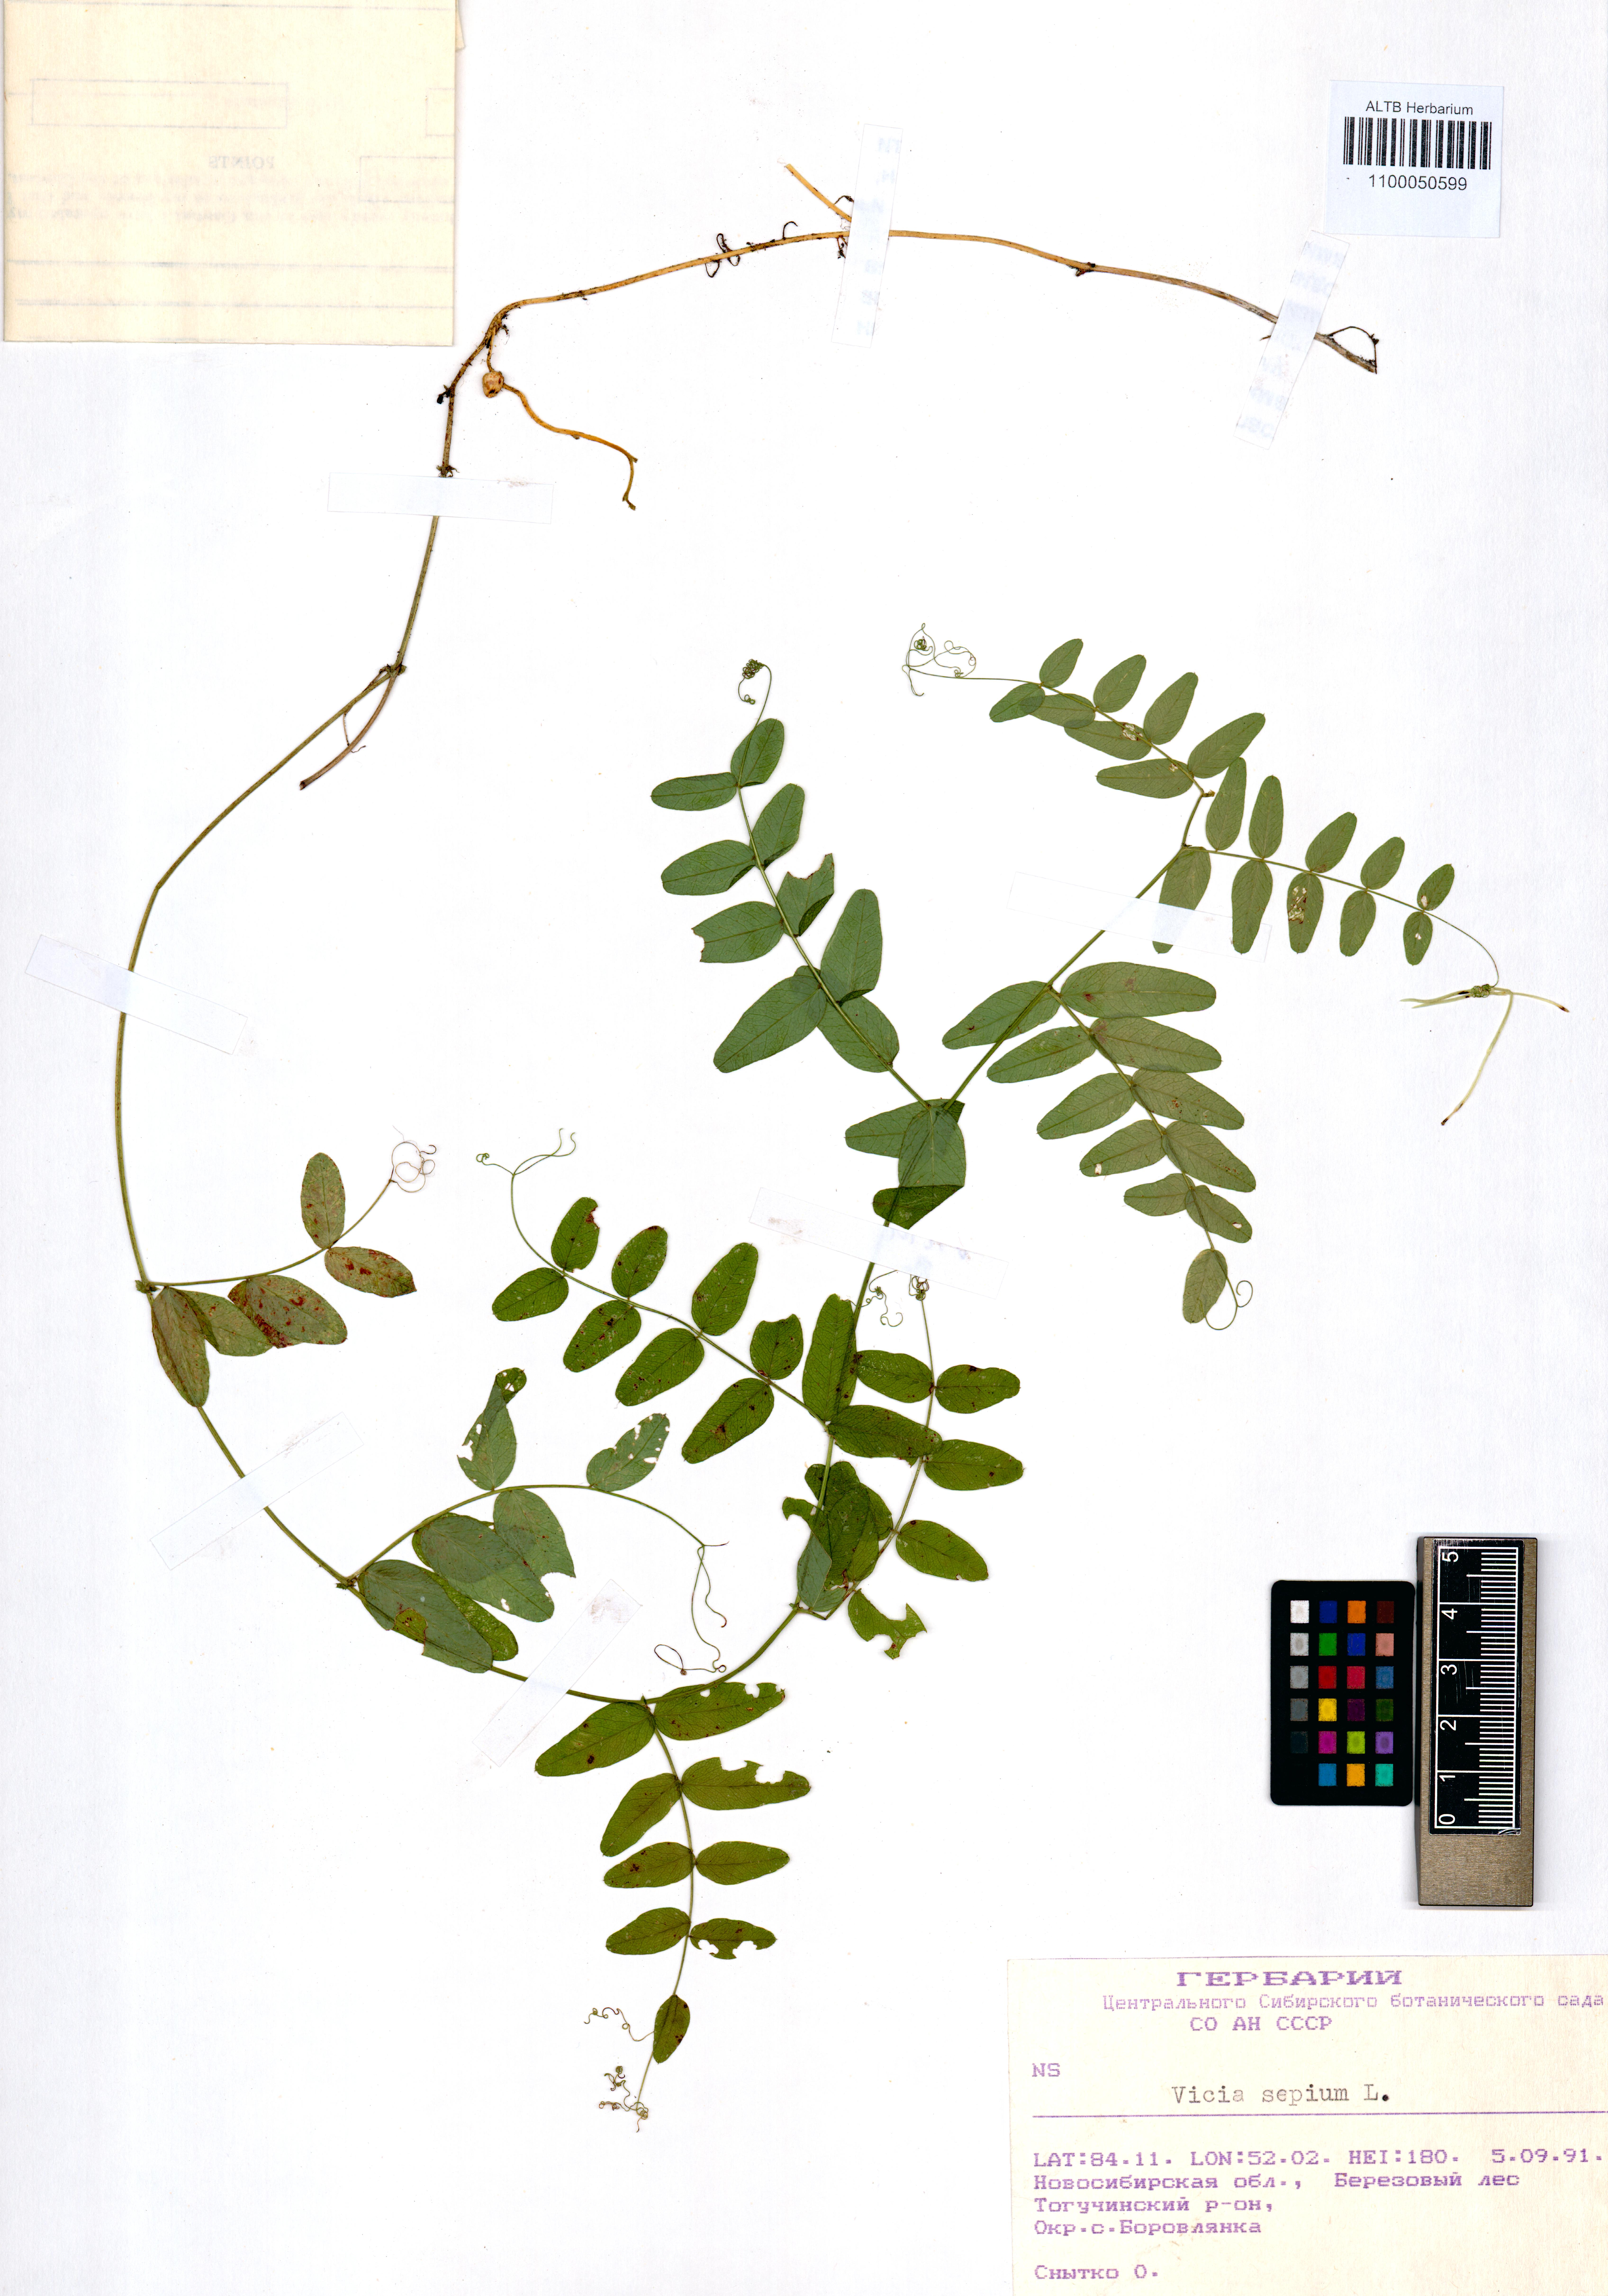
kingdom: Plantae
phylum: Tracheophyta
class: Magnoliopsida
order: Fabales
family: Fabaceae
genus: Vicia
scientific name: Vicia sepium
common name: Bush vetch
